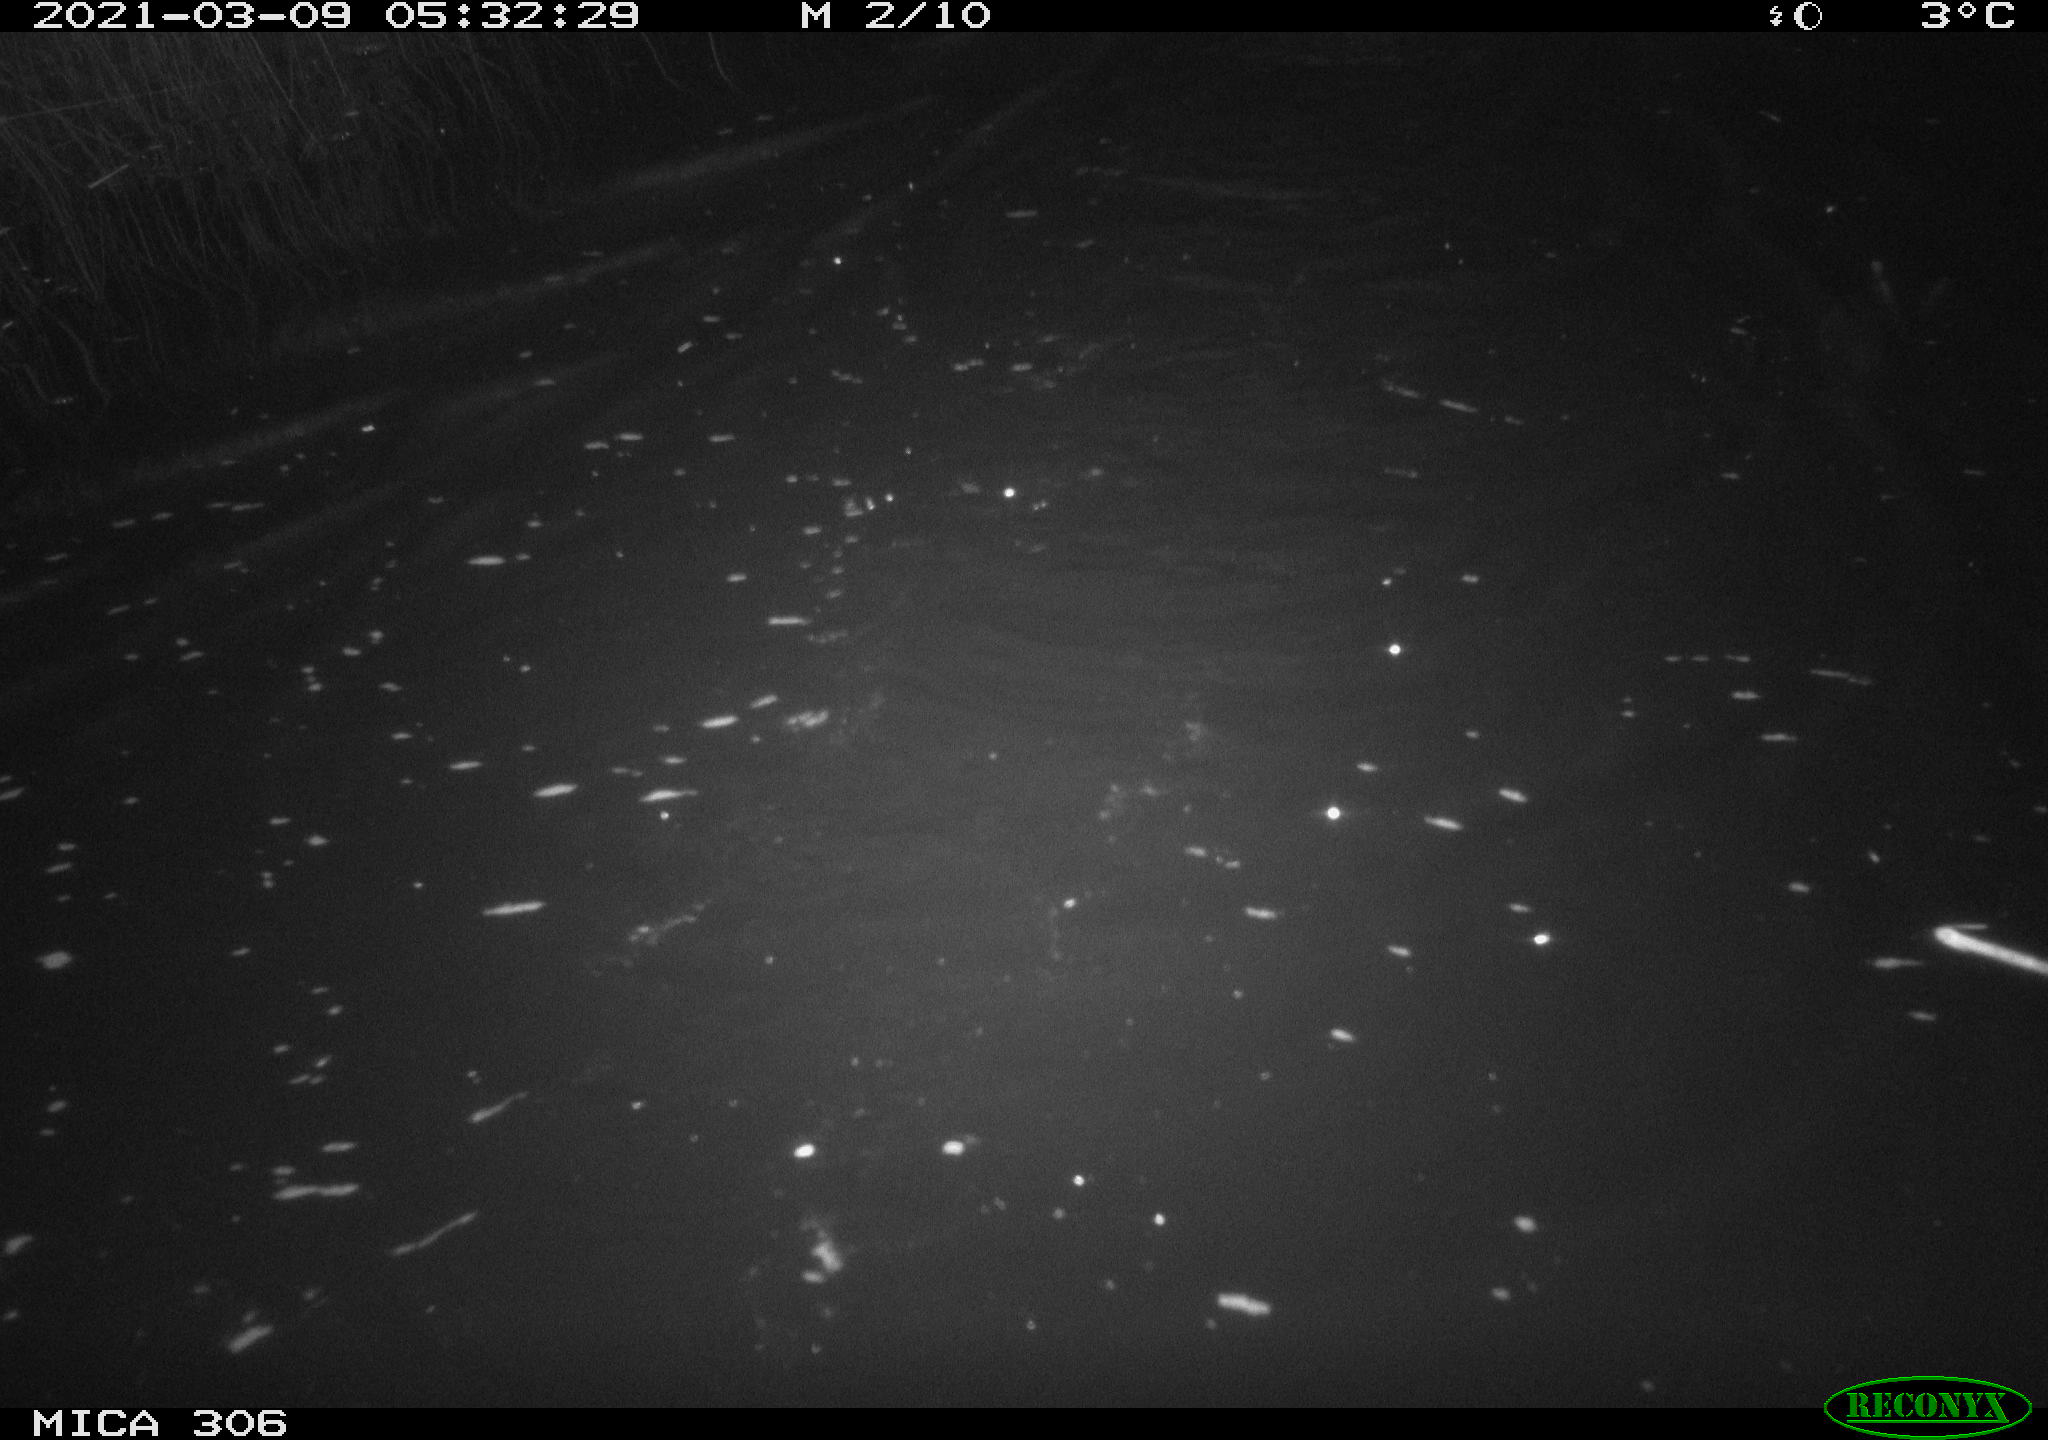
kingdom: Animalia
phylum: Chordata
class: Mammalia
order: Rodentia
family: Cricetidae
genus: Ondatra
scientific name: Ondatra zibethicus
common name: Muskrat
